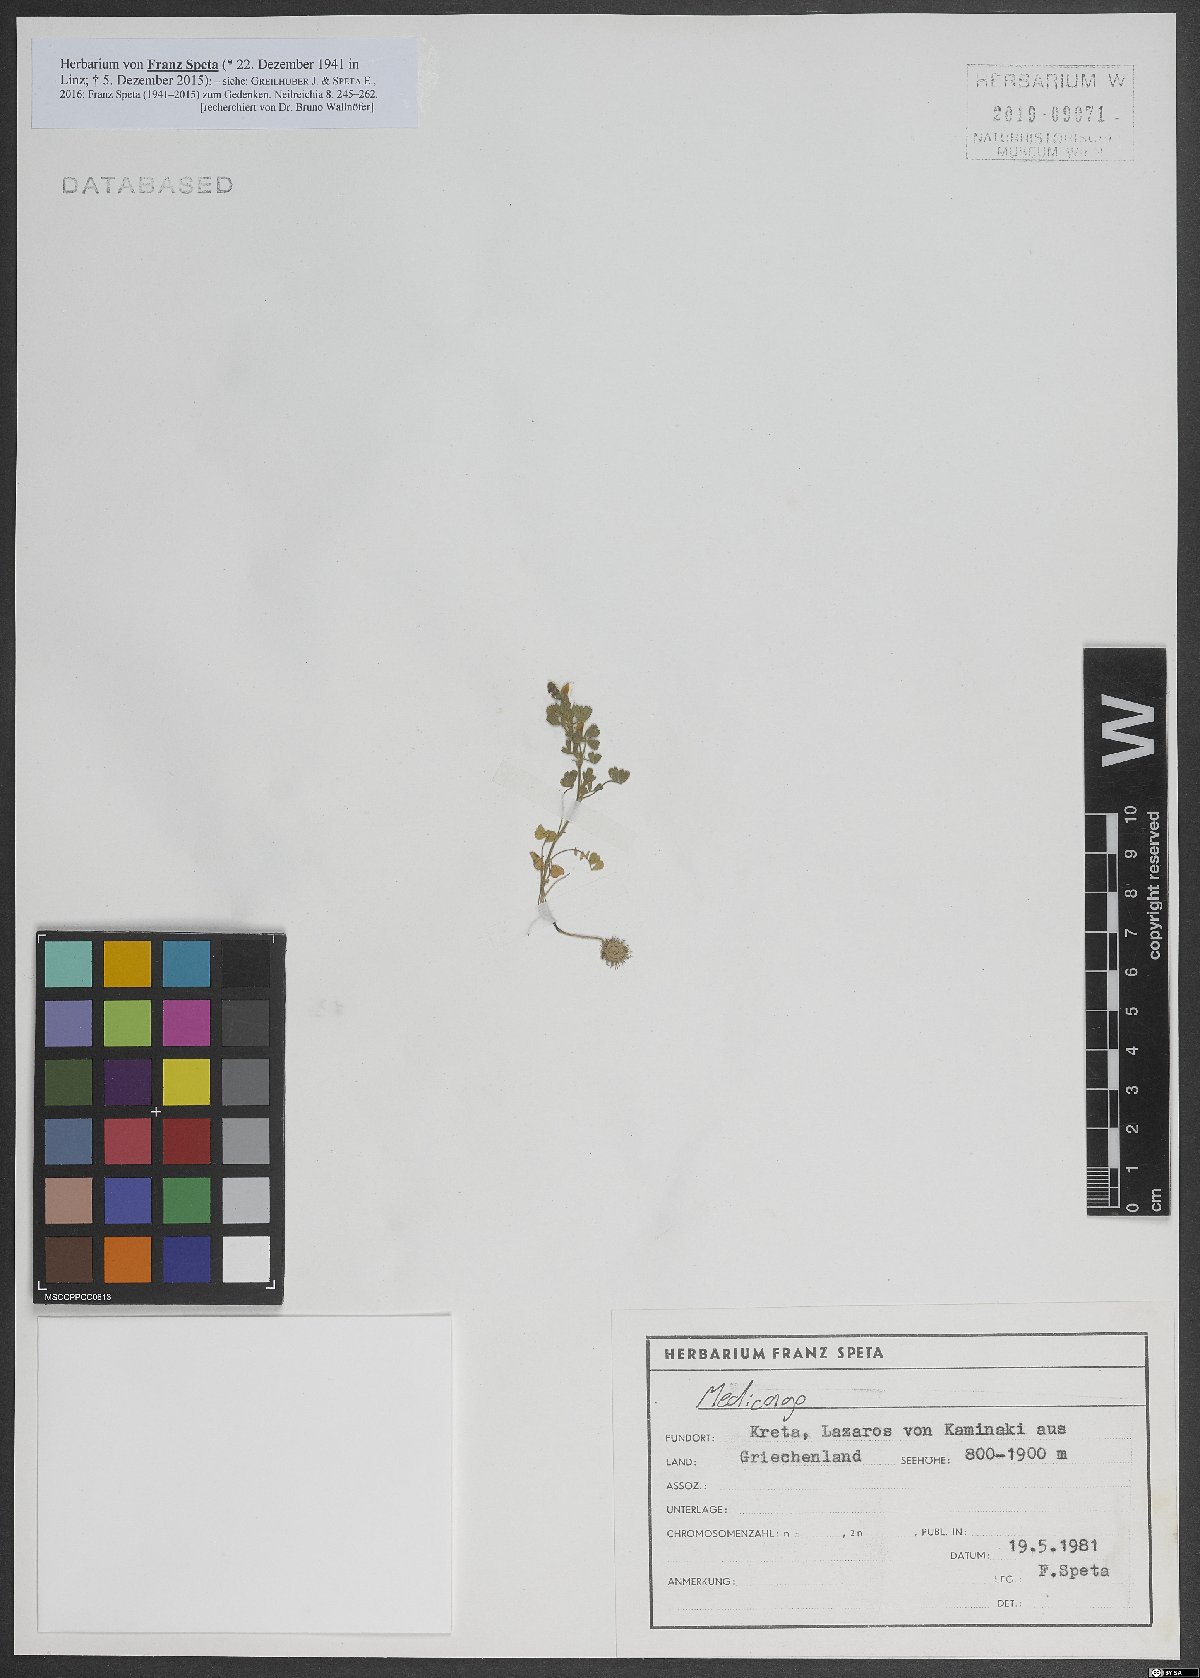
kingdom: Plantae
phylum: Tracheophyta
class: Magnoliopsida
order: Fabales
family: Fabaceae
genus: Medicago
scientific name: Medicago
